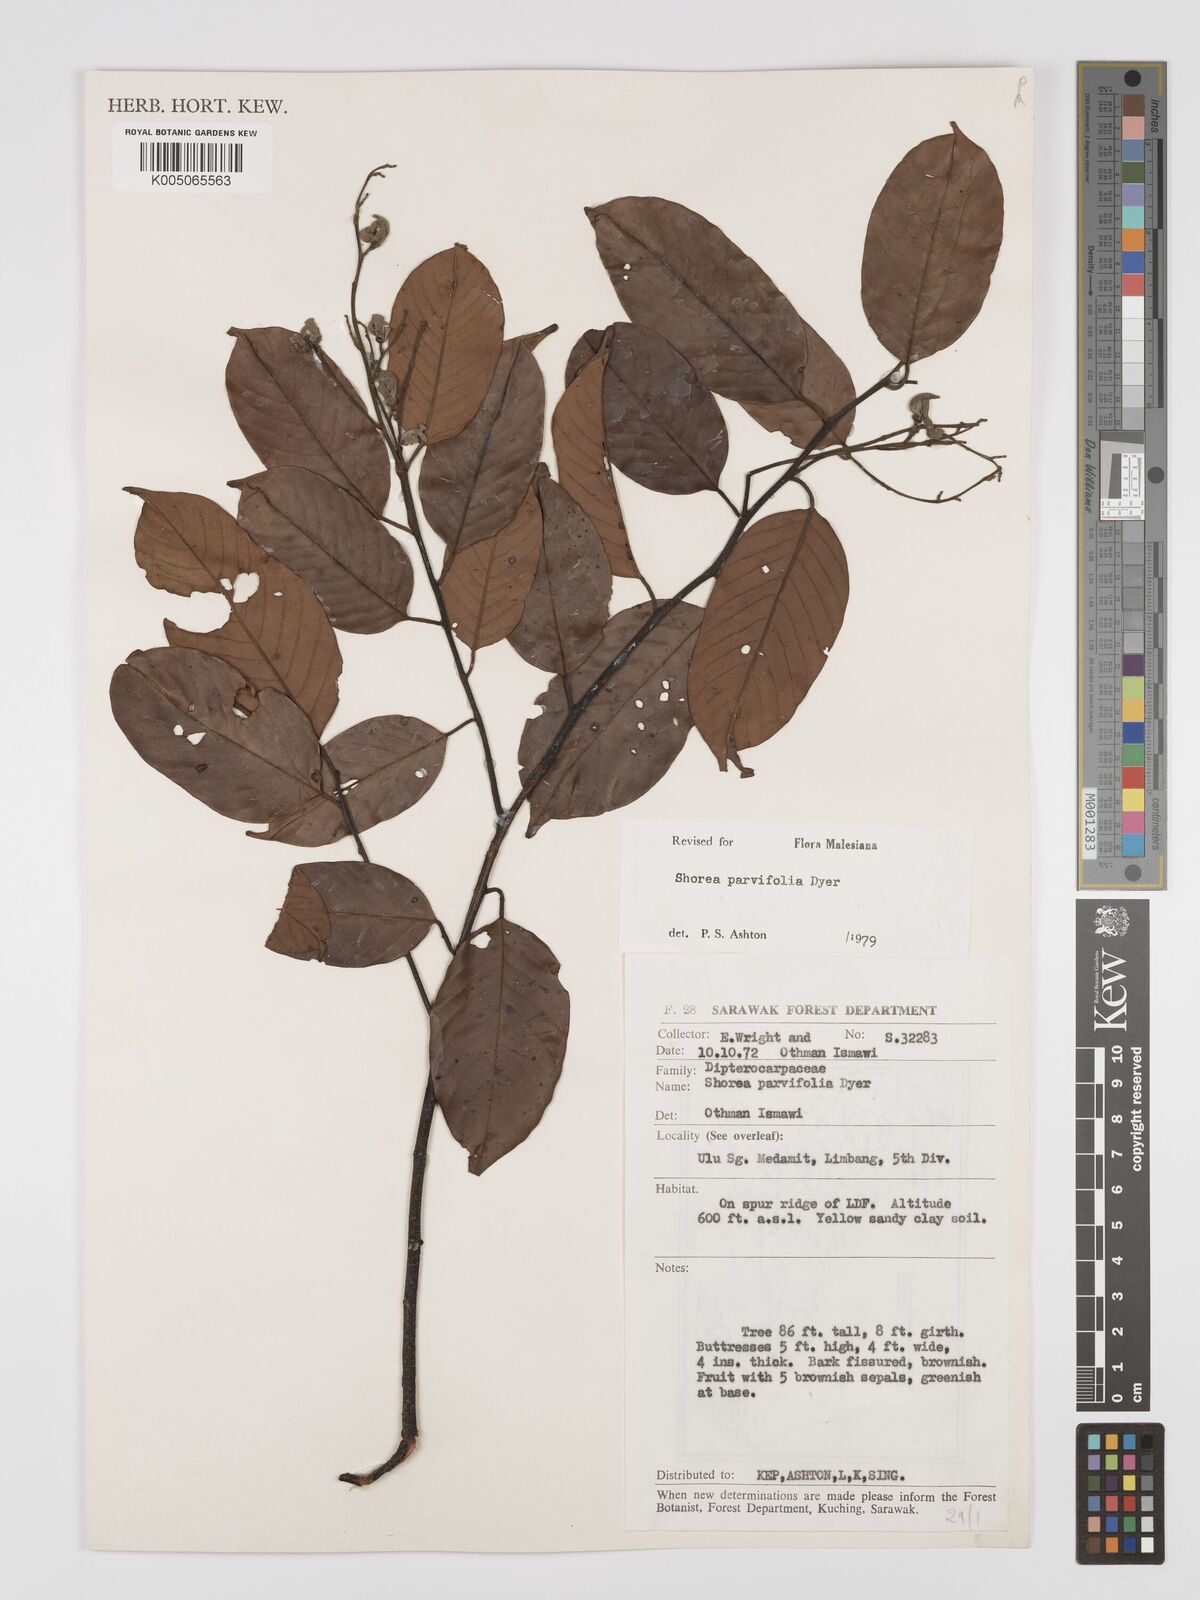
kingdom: Plantae
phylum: Tracheophyta
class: Magnoliopsida
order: Malvales
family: Dipterocarpaceae
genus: Shorea
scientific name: Shorea parvifolia
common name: Light red meranti
